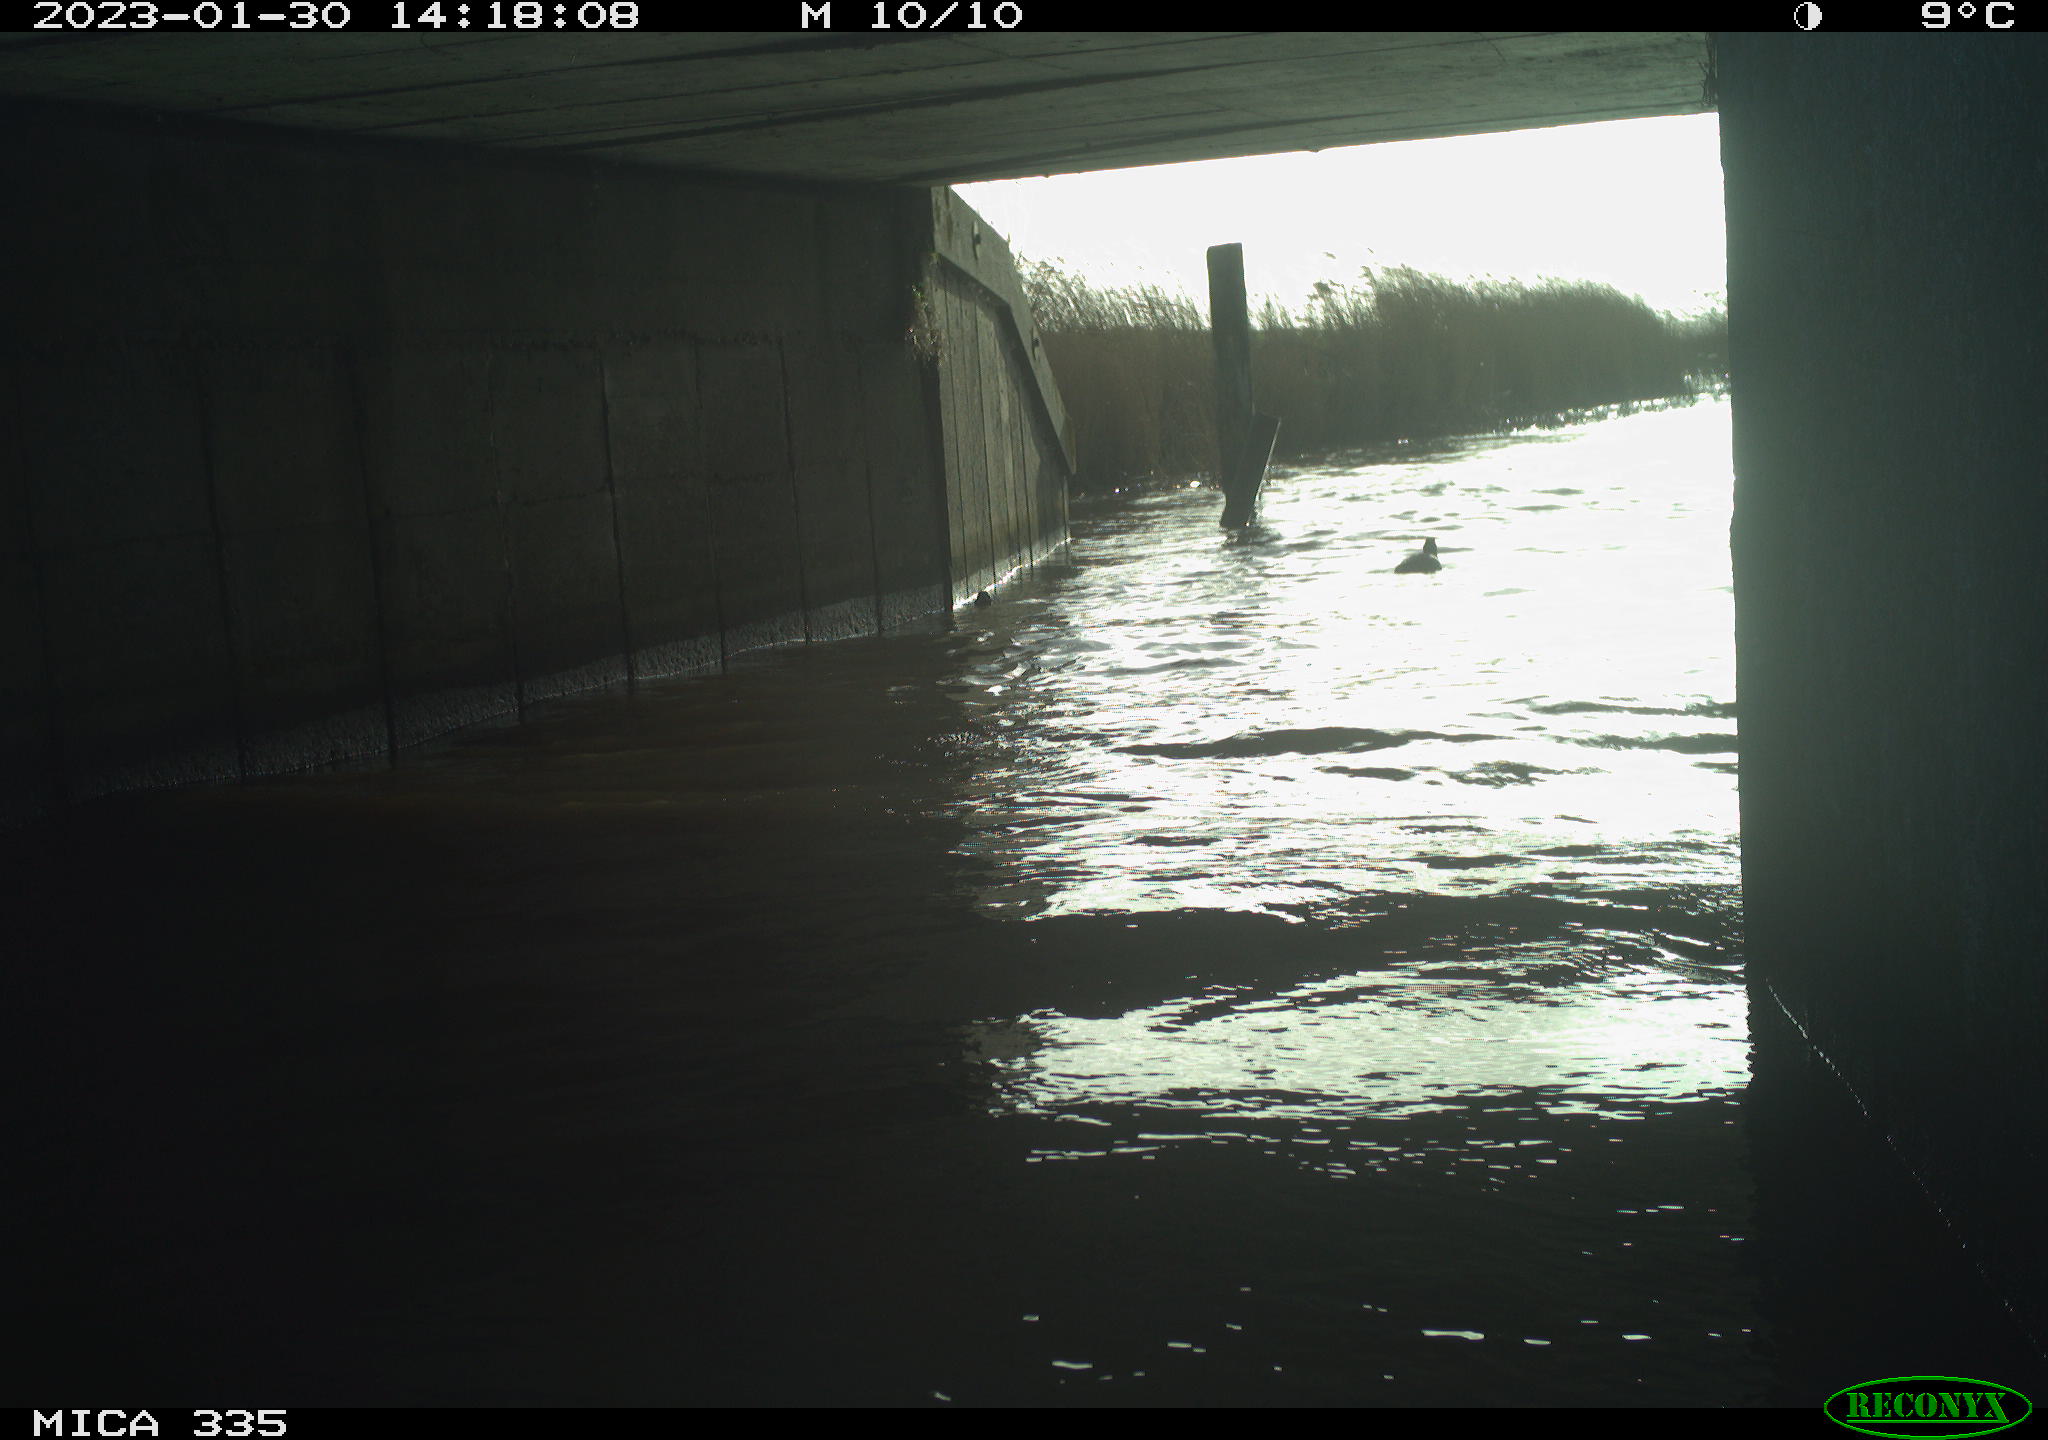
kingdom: Animalia
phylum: Chordata
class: Aves
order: Gruiformes
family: Rallidae
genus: Gallinula
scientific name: Gallinula chloropus
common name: Common moorhen
